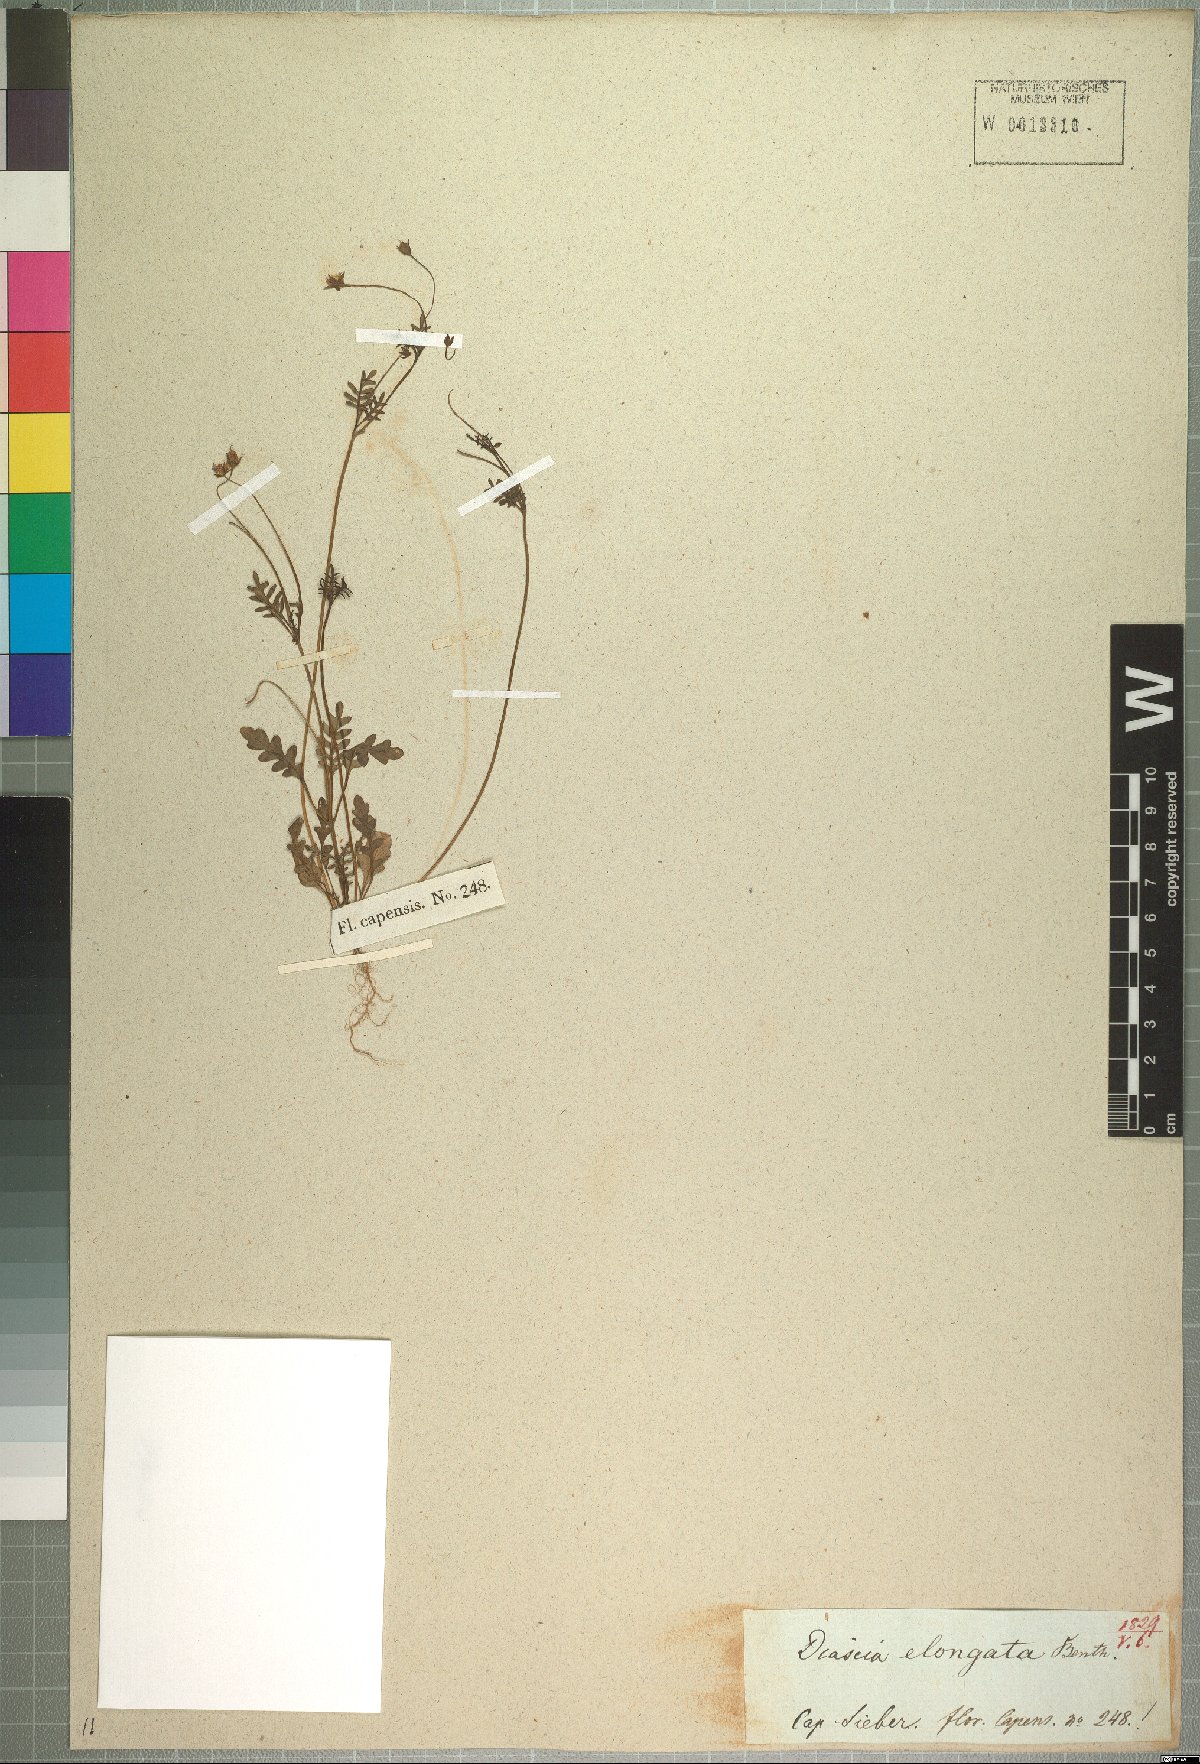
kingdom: Plantae
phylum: Tracheophyta
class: Magnoliopsida
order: Lamiales
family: Scrophulariaceae
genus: Diascia
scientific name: Diascia elongata
